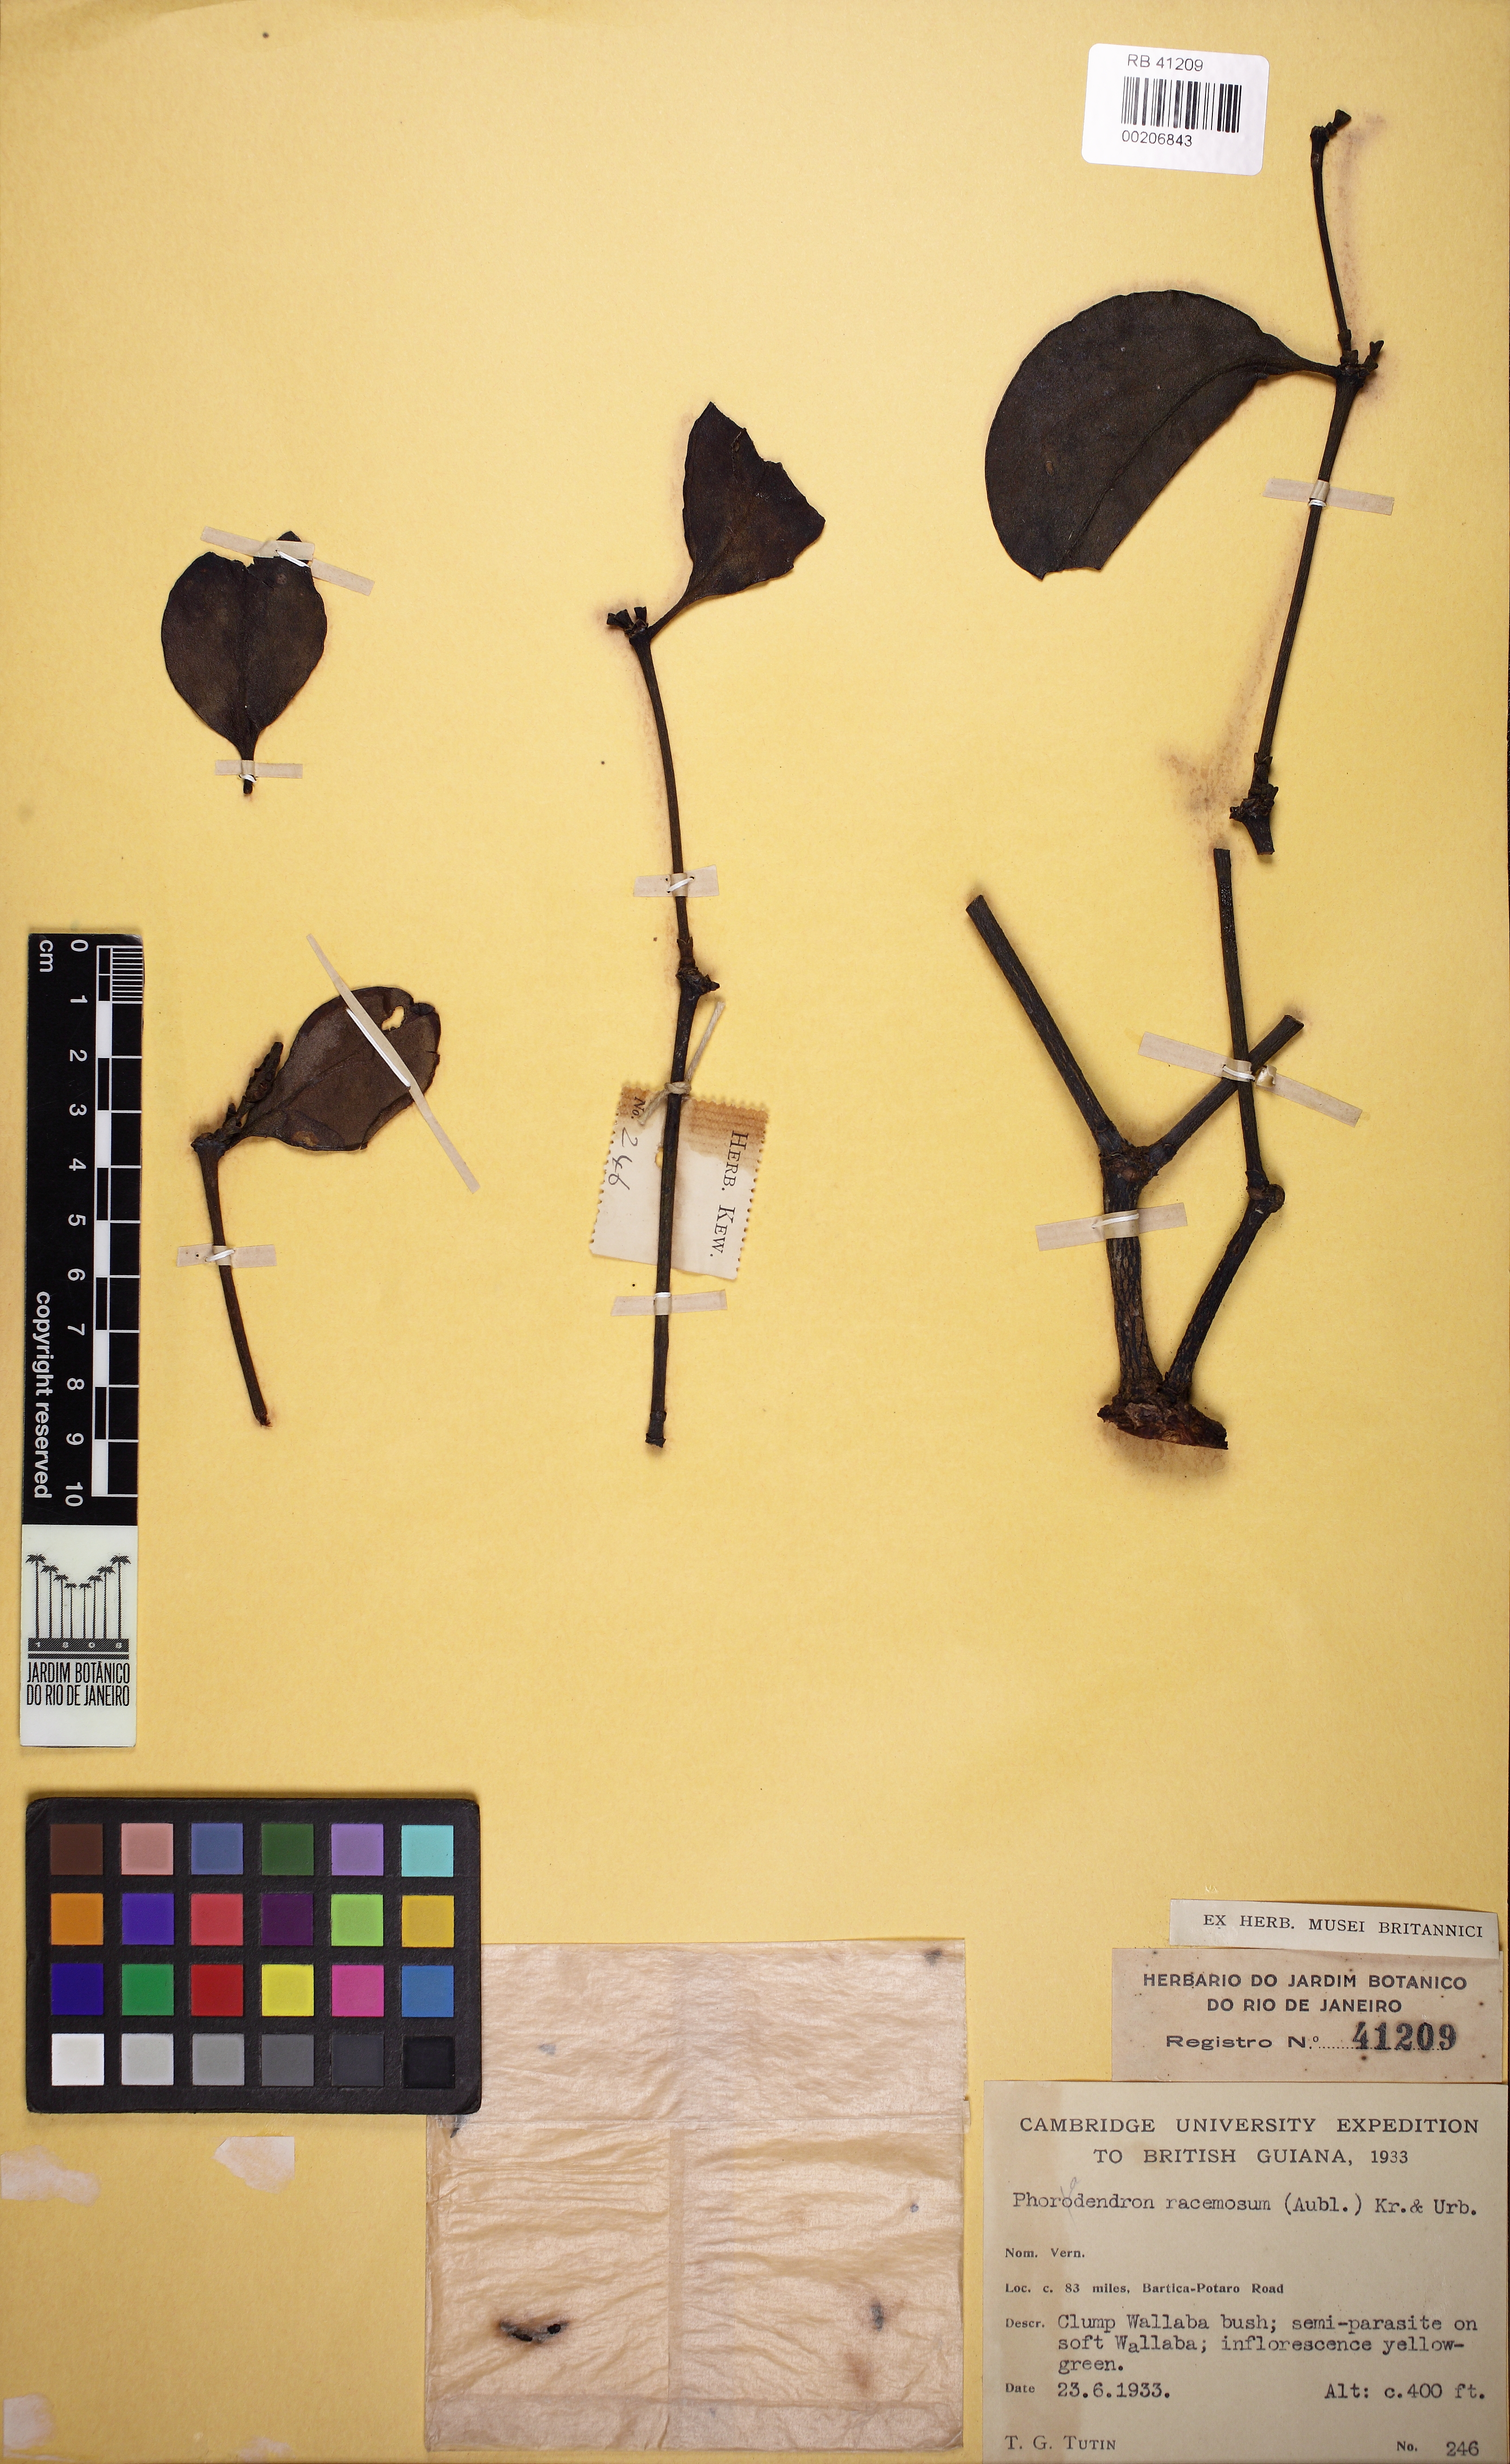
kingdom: Plantae
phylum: Tracheophyta
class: Magnoliopsida
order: Santalales
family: Viscaceae
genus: Phoradendron
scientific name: Phoradendron racemosum
